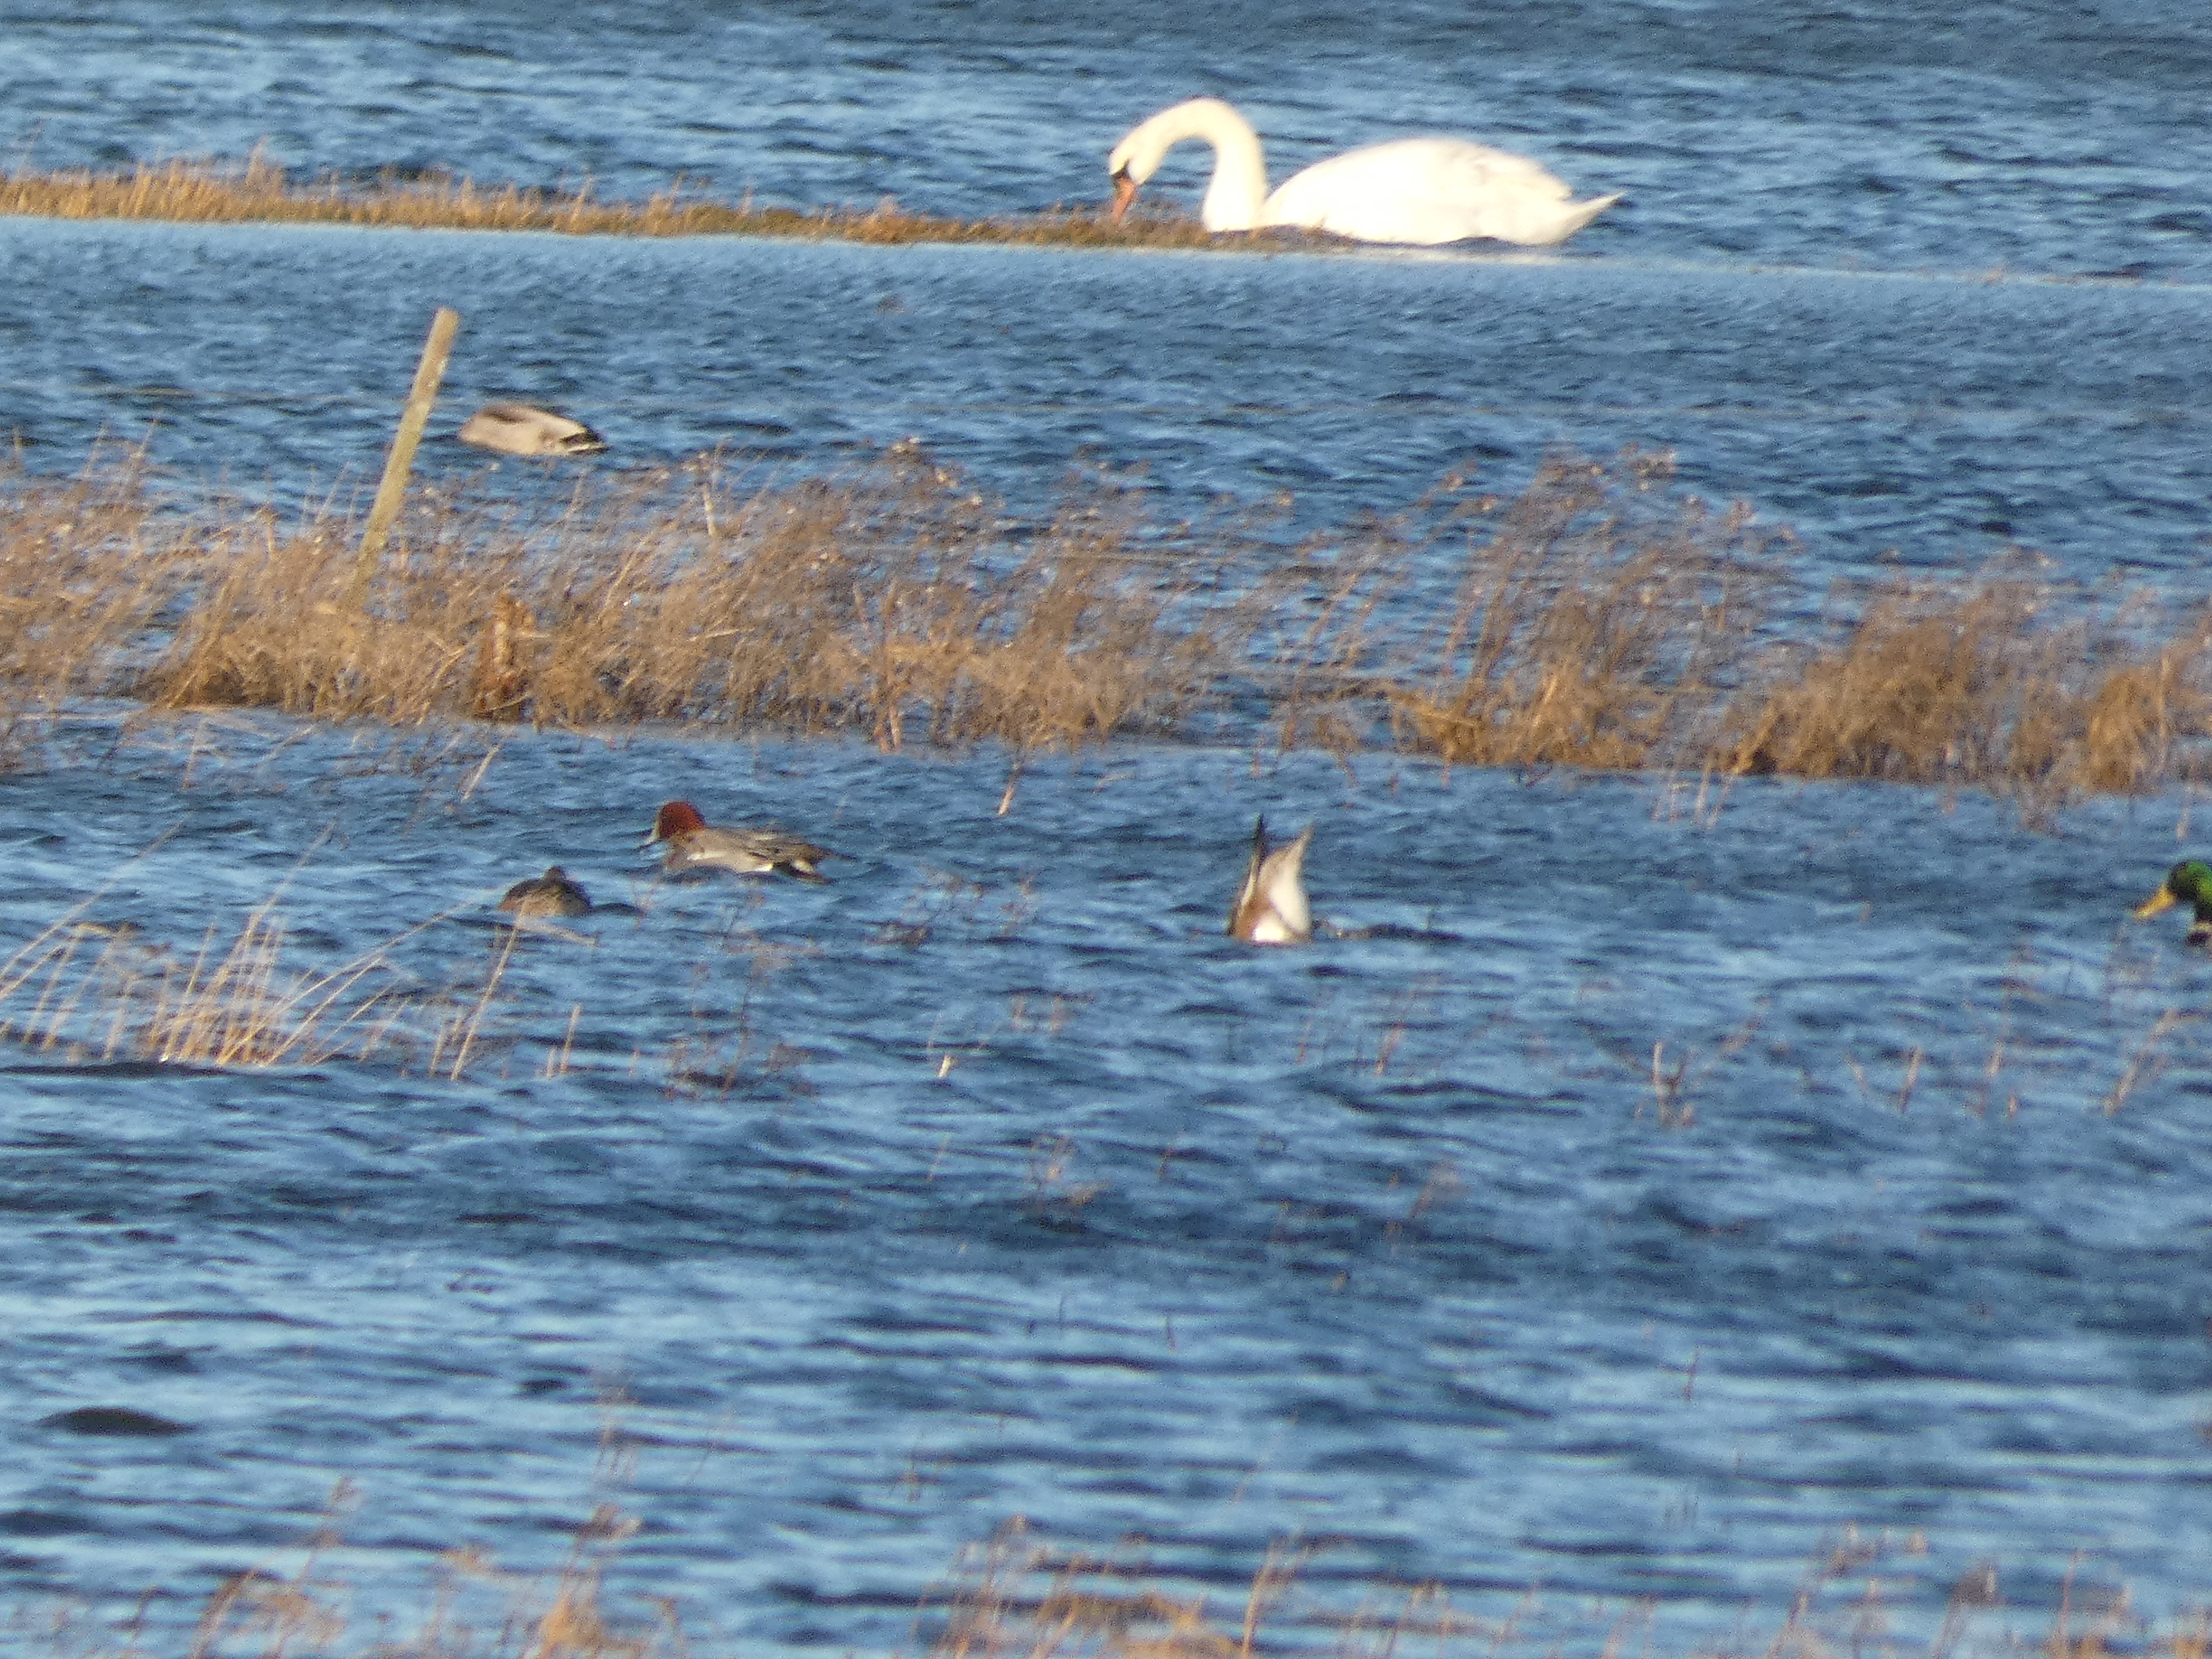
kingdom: Animalia
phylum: Chordata
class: Aves
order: Anseriformes
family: Anatidae
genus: Mareca
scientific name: Mareca penelope
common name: Pibeand
